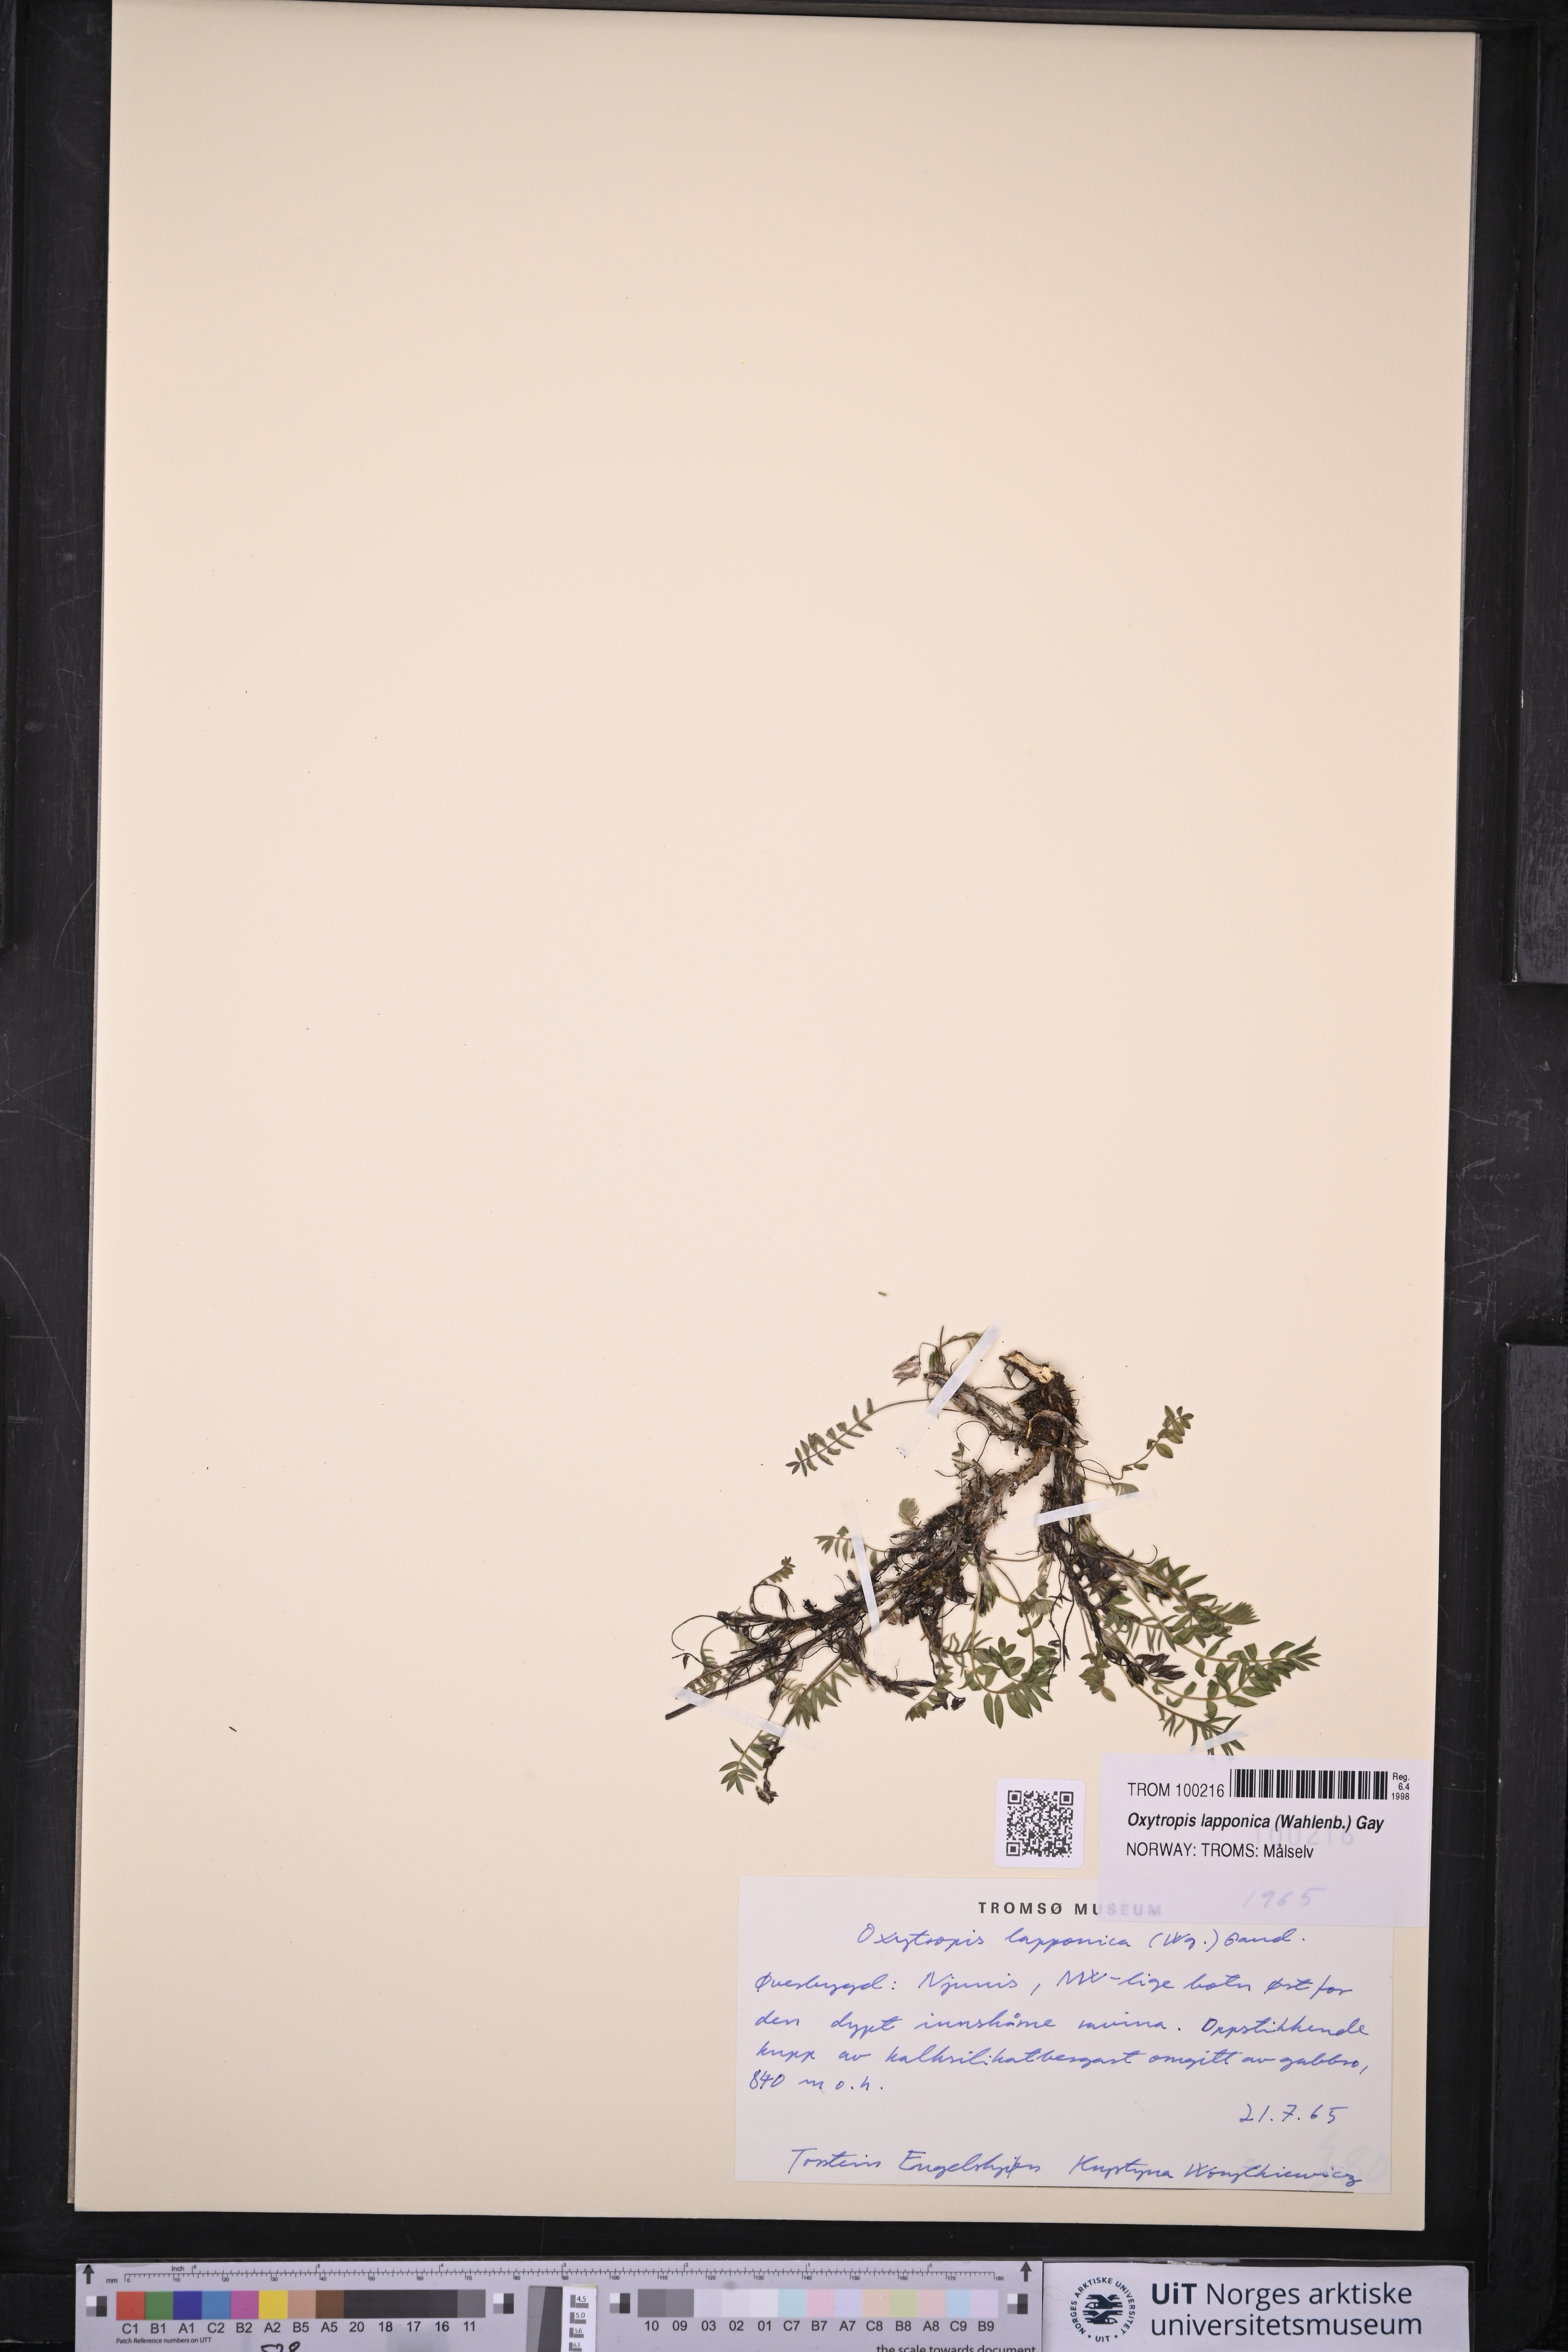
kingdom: Plantae
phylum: Tracheophyta
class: Magnoliopsida
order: Fabales
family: Fabaceae
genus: Oxytropis
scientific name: Oxytropis lapponica
